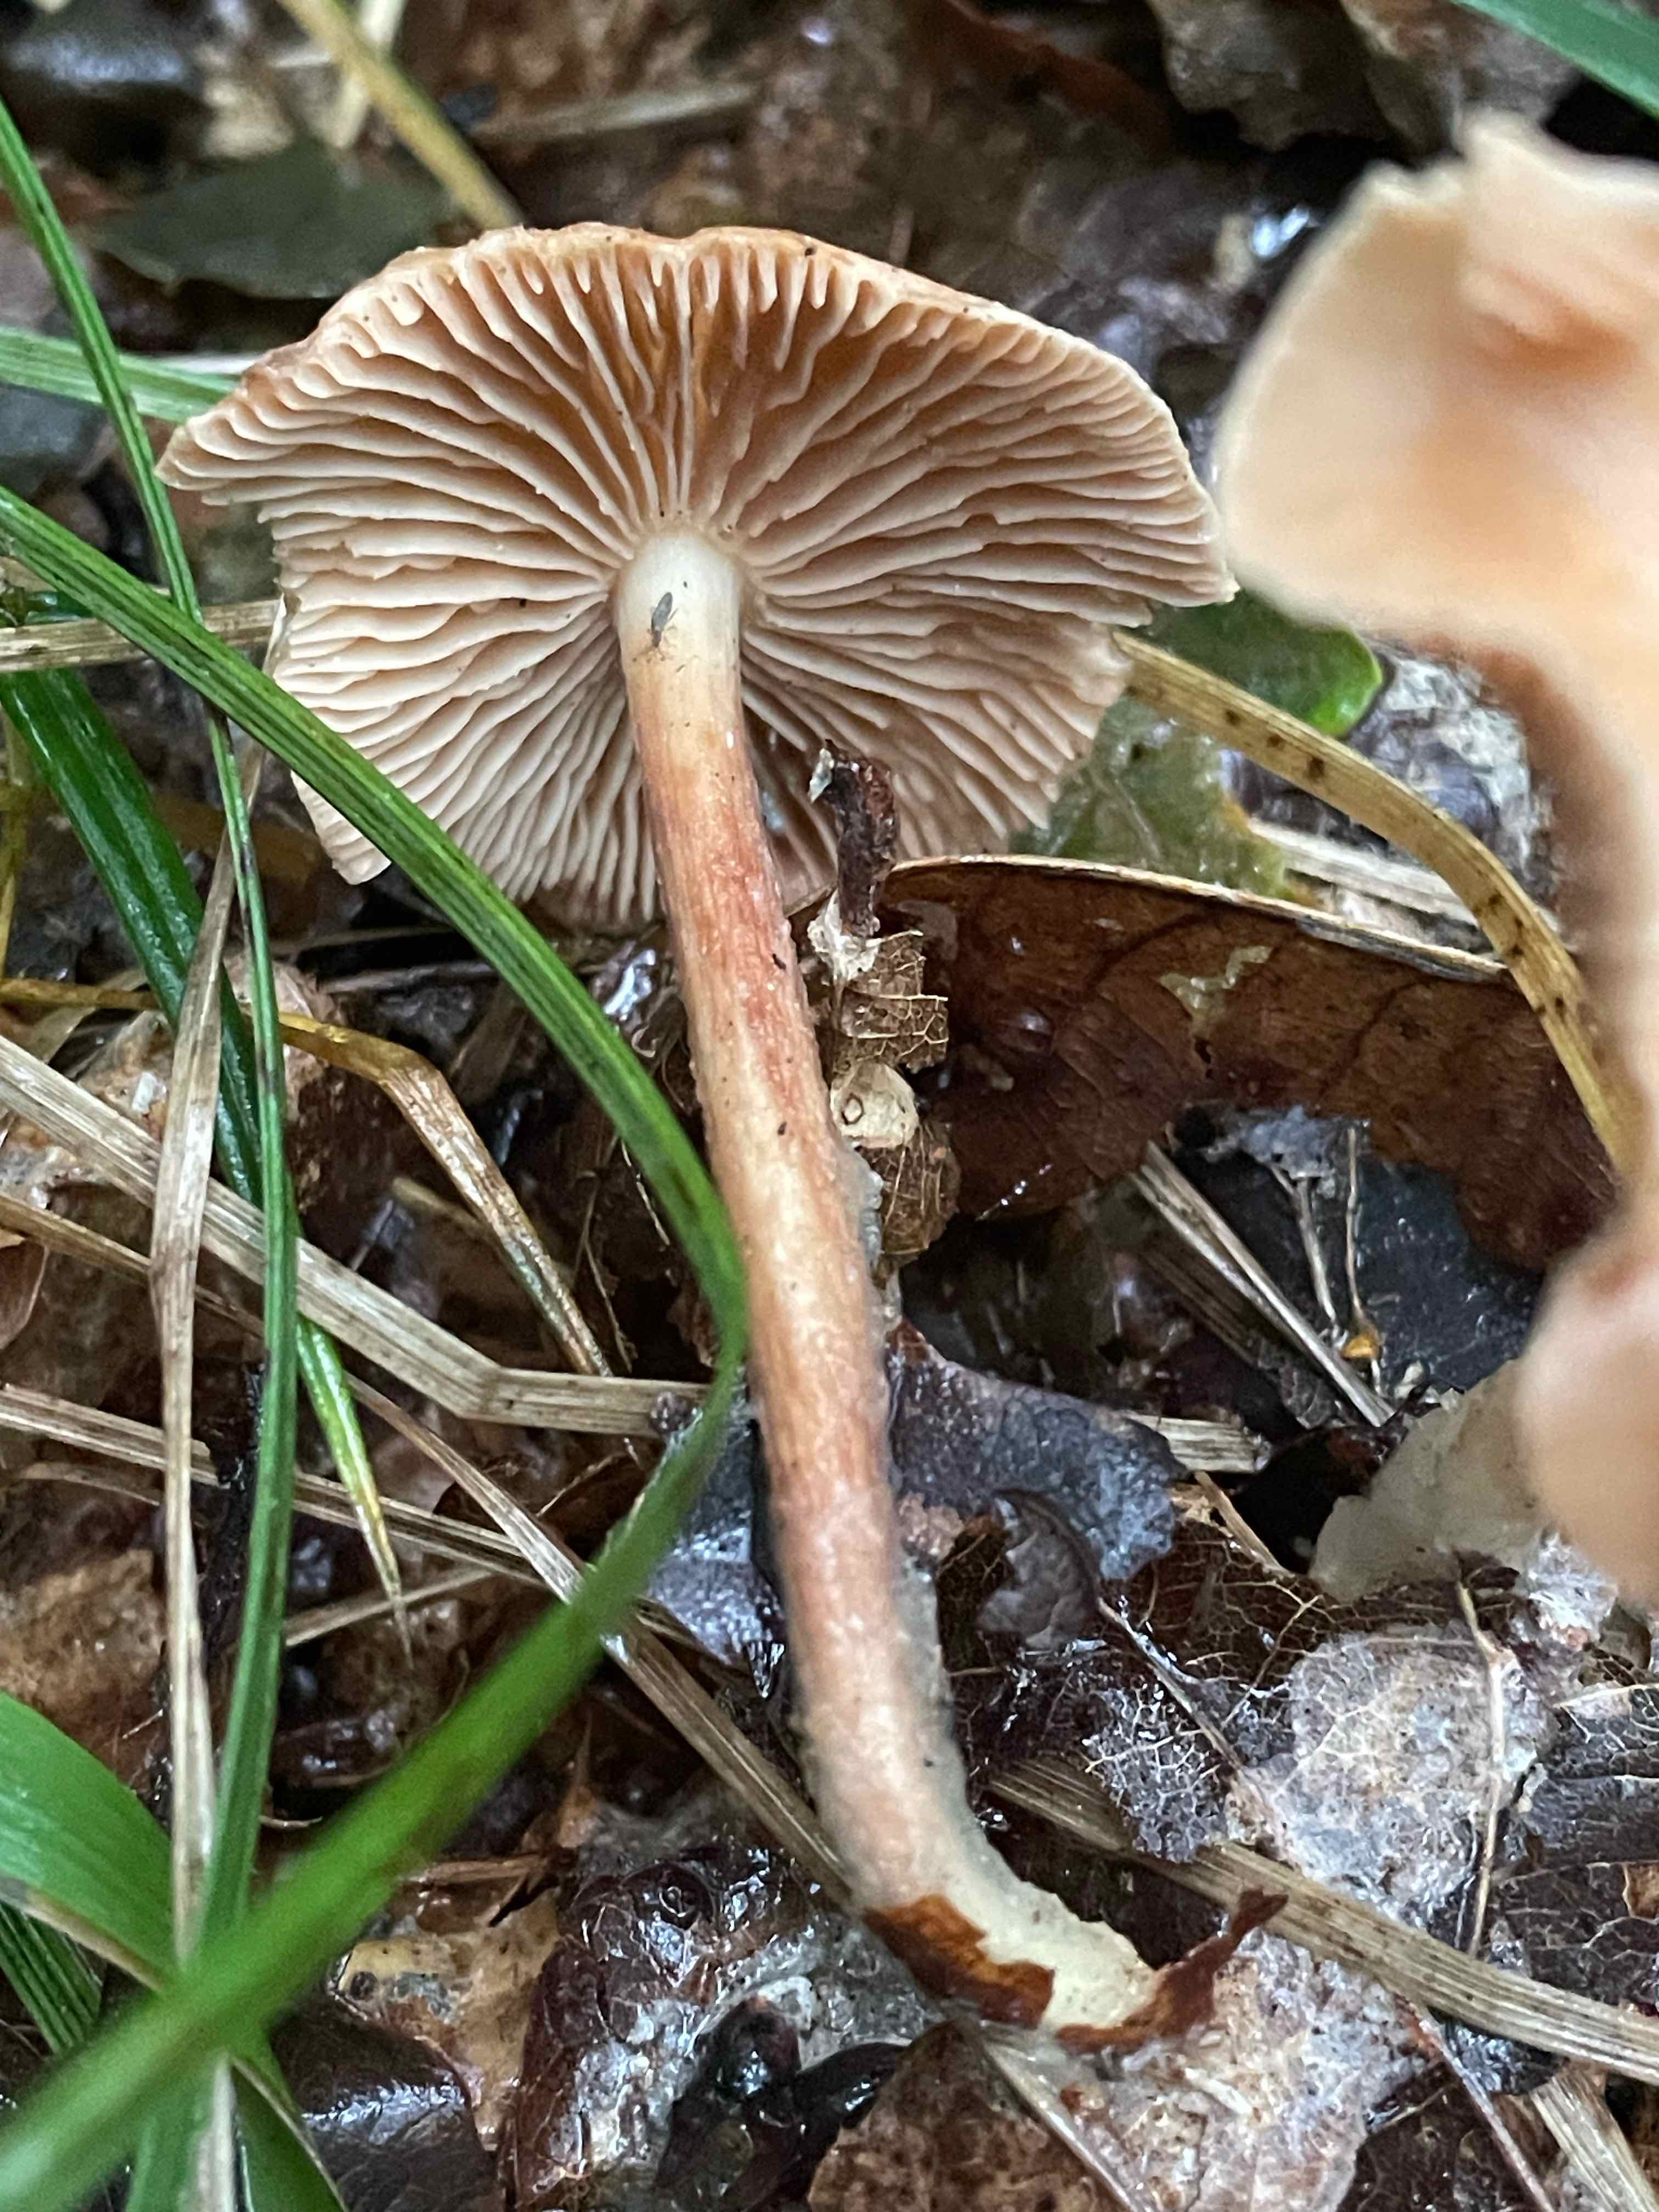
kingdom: Fungi
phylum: Basidiomycota
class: Agaricomycetes
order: Agaricales
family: Omphalotaceae
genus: Collybiopsis
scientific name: Collybiopsis peronata
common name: bestøvlet fladhat
